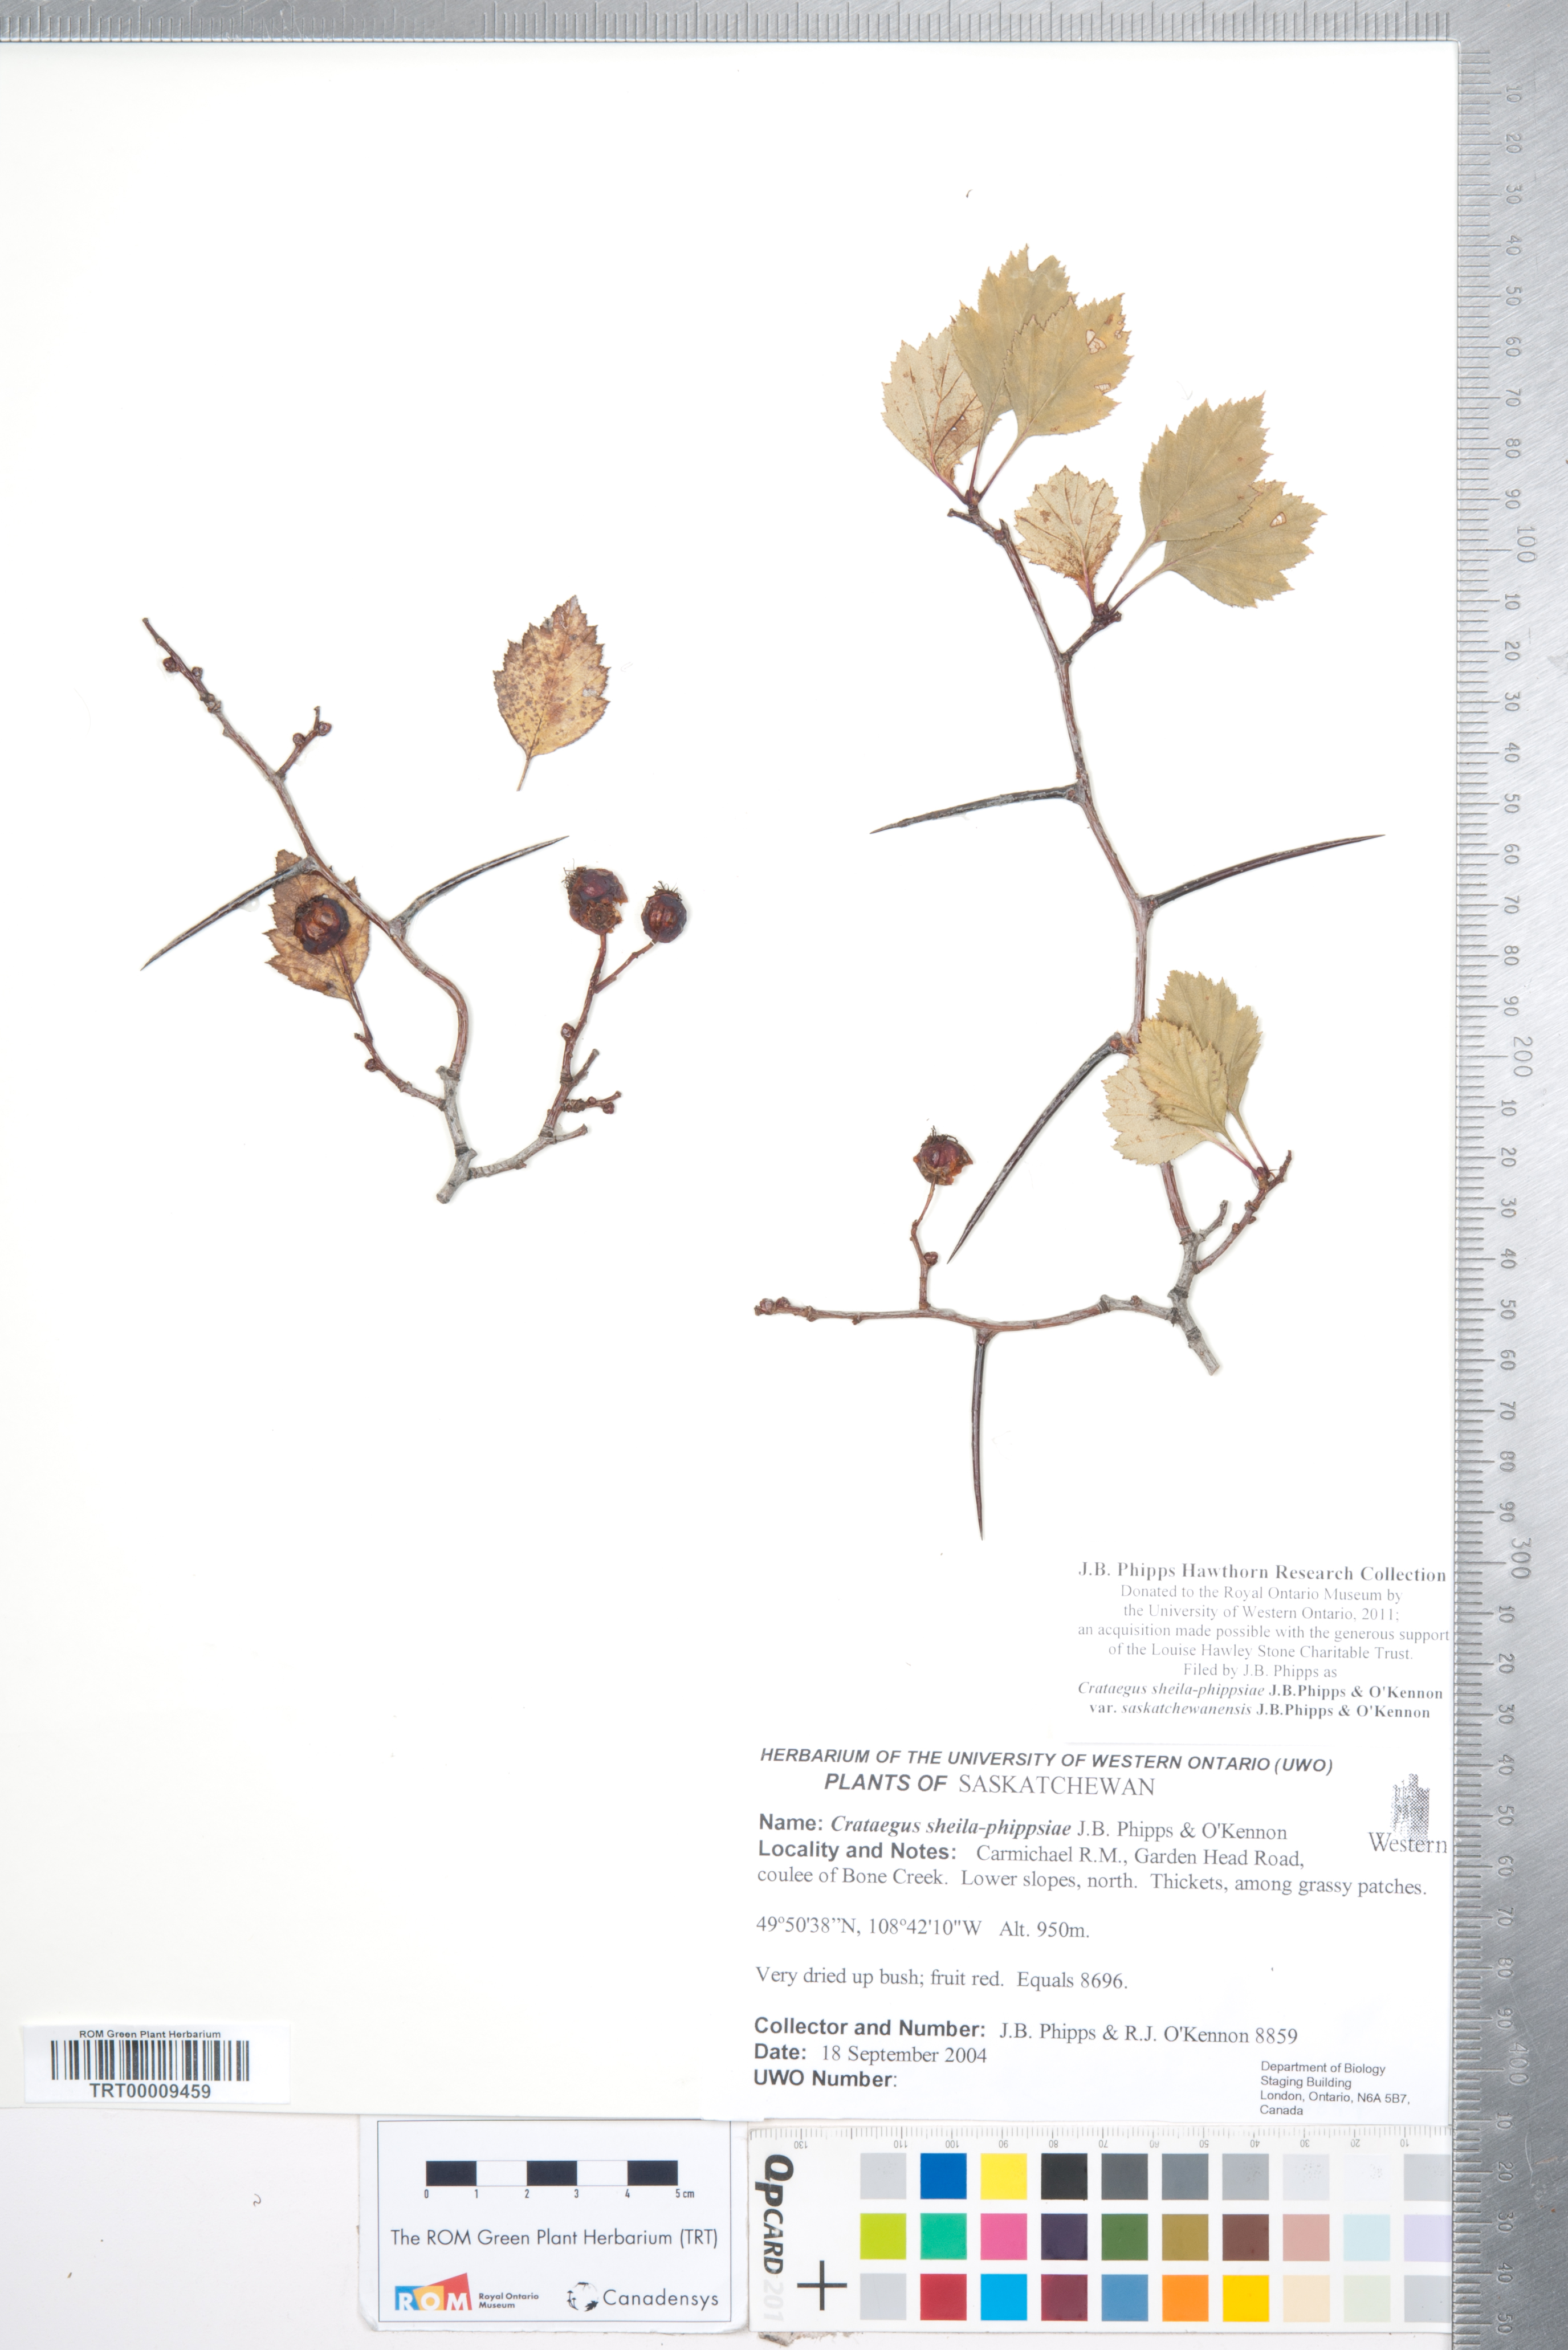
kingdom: Plantae
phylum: Tracheophyta
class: Magnoliopsida
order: Rosales
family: Rosaceae
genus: Crataegus
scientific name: Crataegus sheila-phippsiae
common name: Sheila phipps' hawthorn
